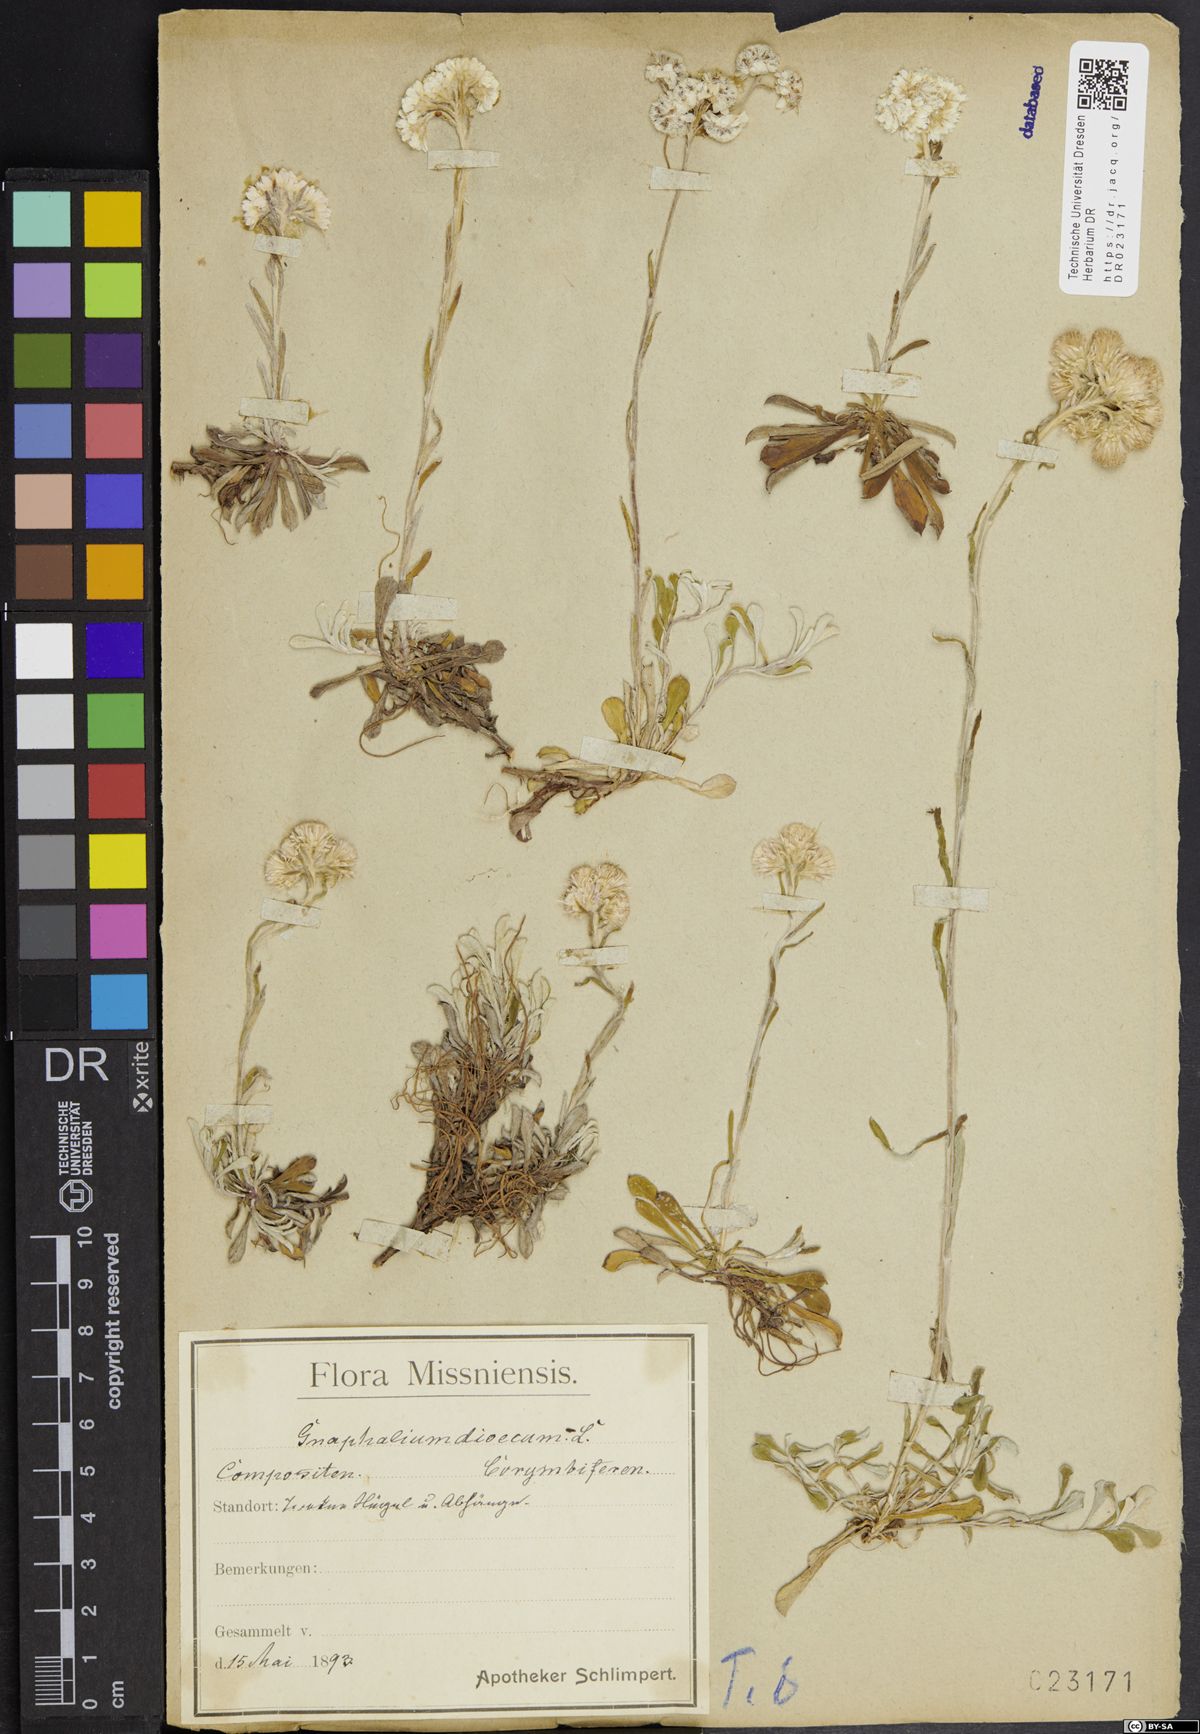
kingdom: Plantae
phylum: Tracheophyta
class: Magnoliopsida
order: Asterales
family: Asteraceae
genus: Antennaria
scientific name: Antennaria dioica
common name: Mountain everlasting
